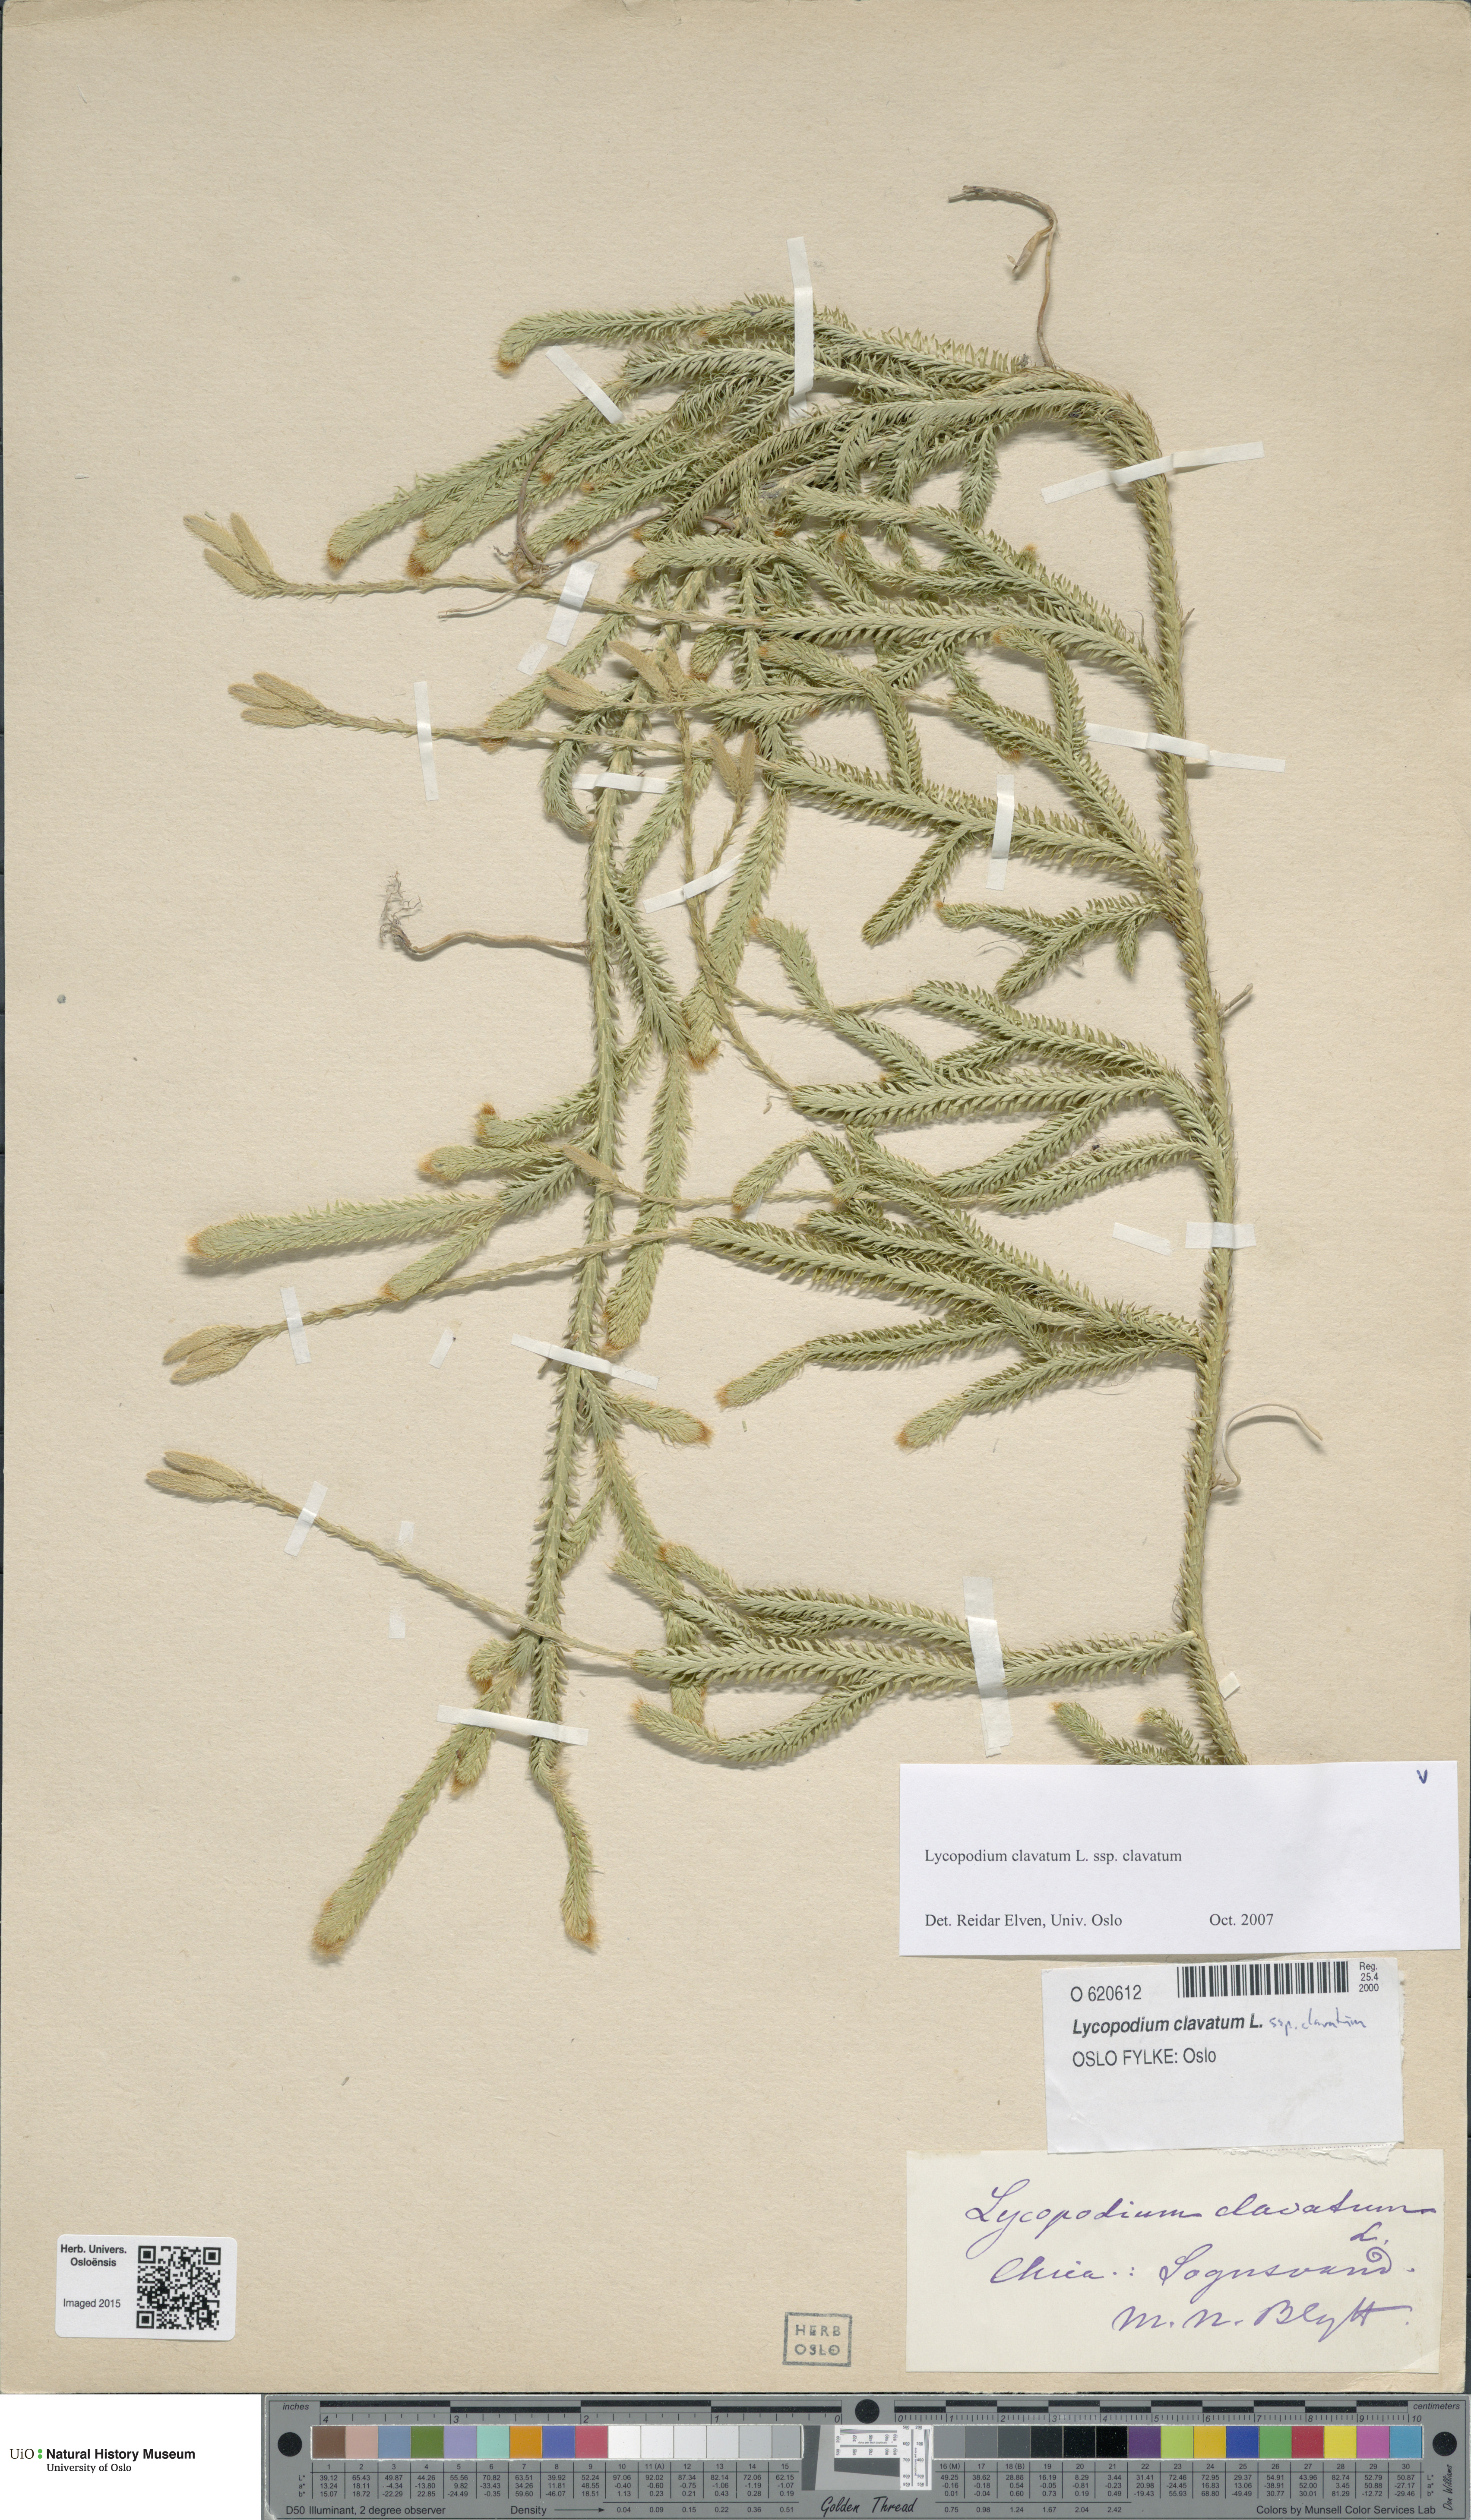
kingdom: Plantae
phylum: Tracheophyta
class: Lycopodiopsida
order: Lycopodiales
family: Lycopodiaceae
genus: Lycopodium
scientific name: Lycopodium clavatum
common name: Stag's-horn clubmoss
